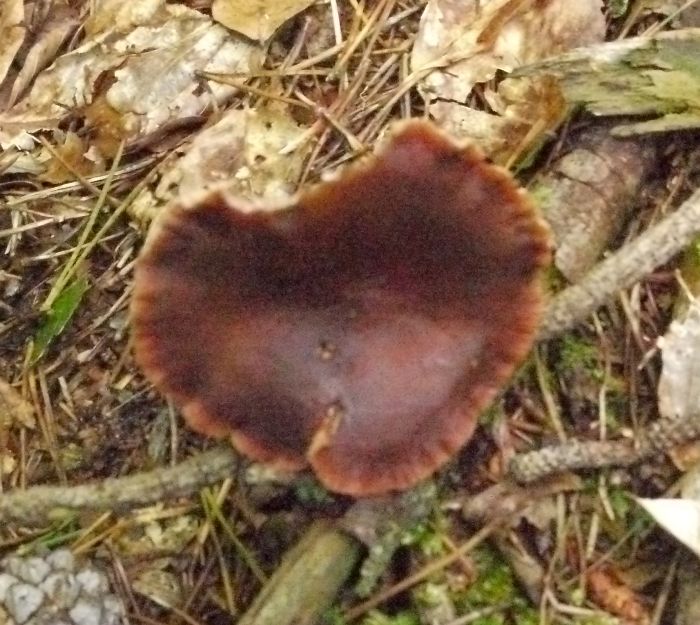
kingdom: Fungi
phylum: Basidiomycota
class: Agaricomycetes
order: Russulales
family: Russulaceae
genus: Lactarius
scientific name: Lactarius hepaticus
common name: leverbrun mælkehat
